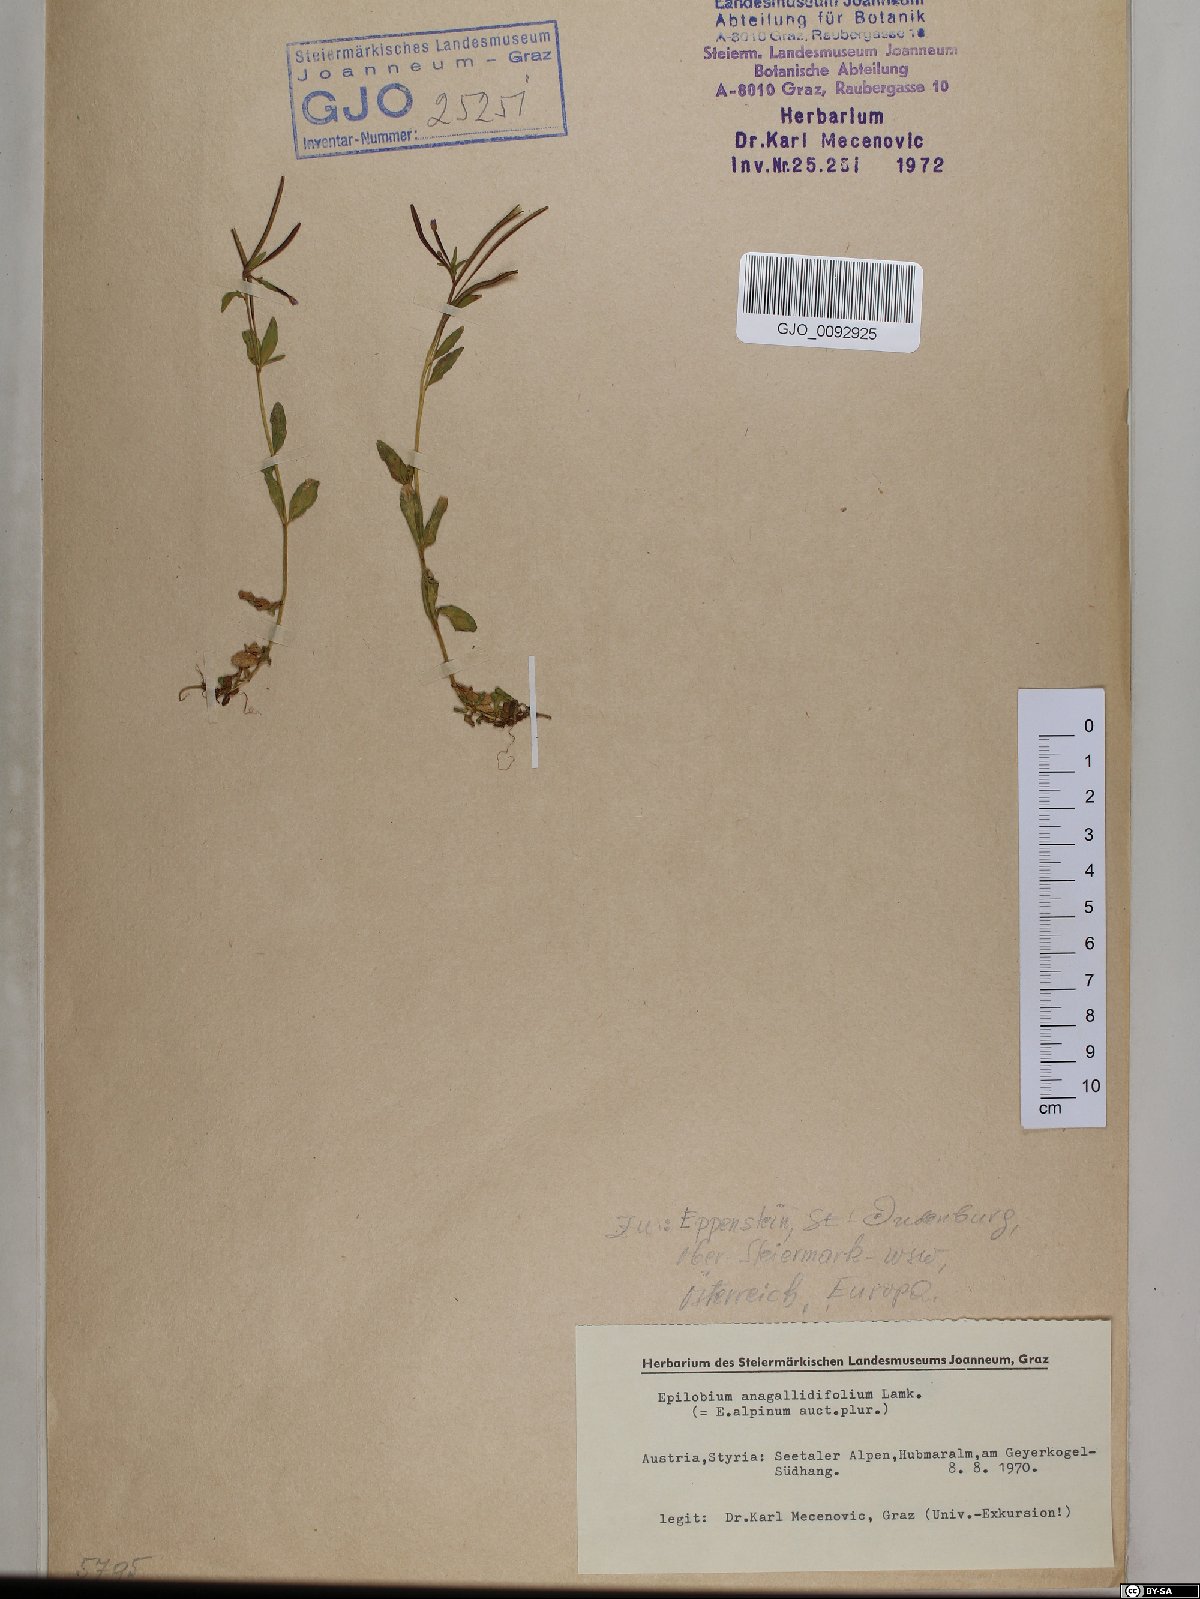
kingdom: Plantae
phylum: Tracheophyta
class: Magnoliopsida
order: Myrtales
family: Onagraceae
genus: Epilobium
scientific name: Epilobium anagallidifolium
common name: Alpine willowherb
